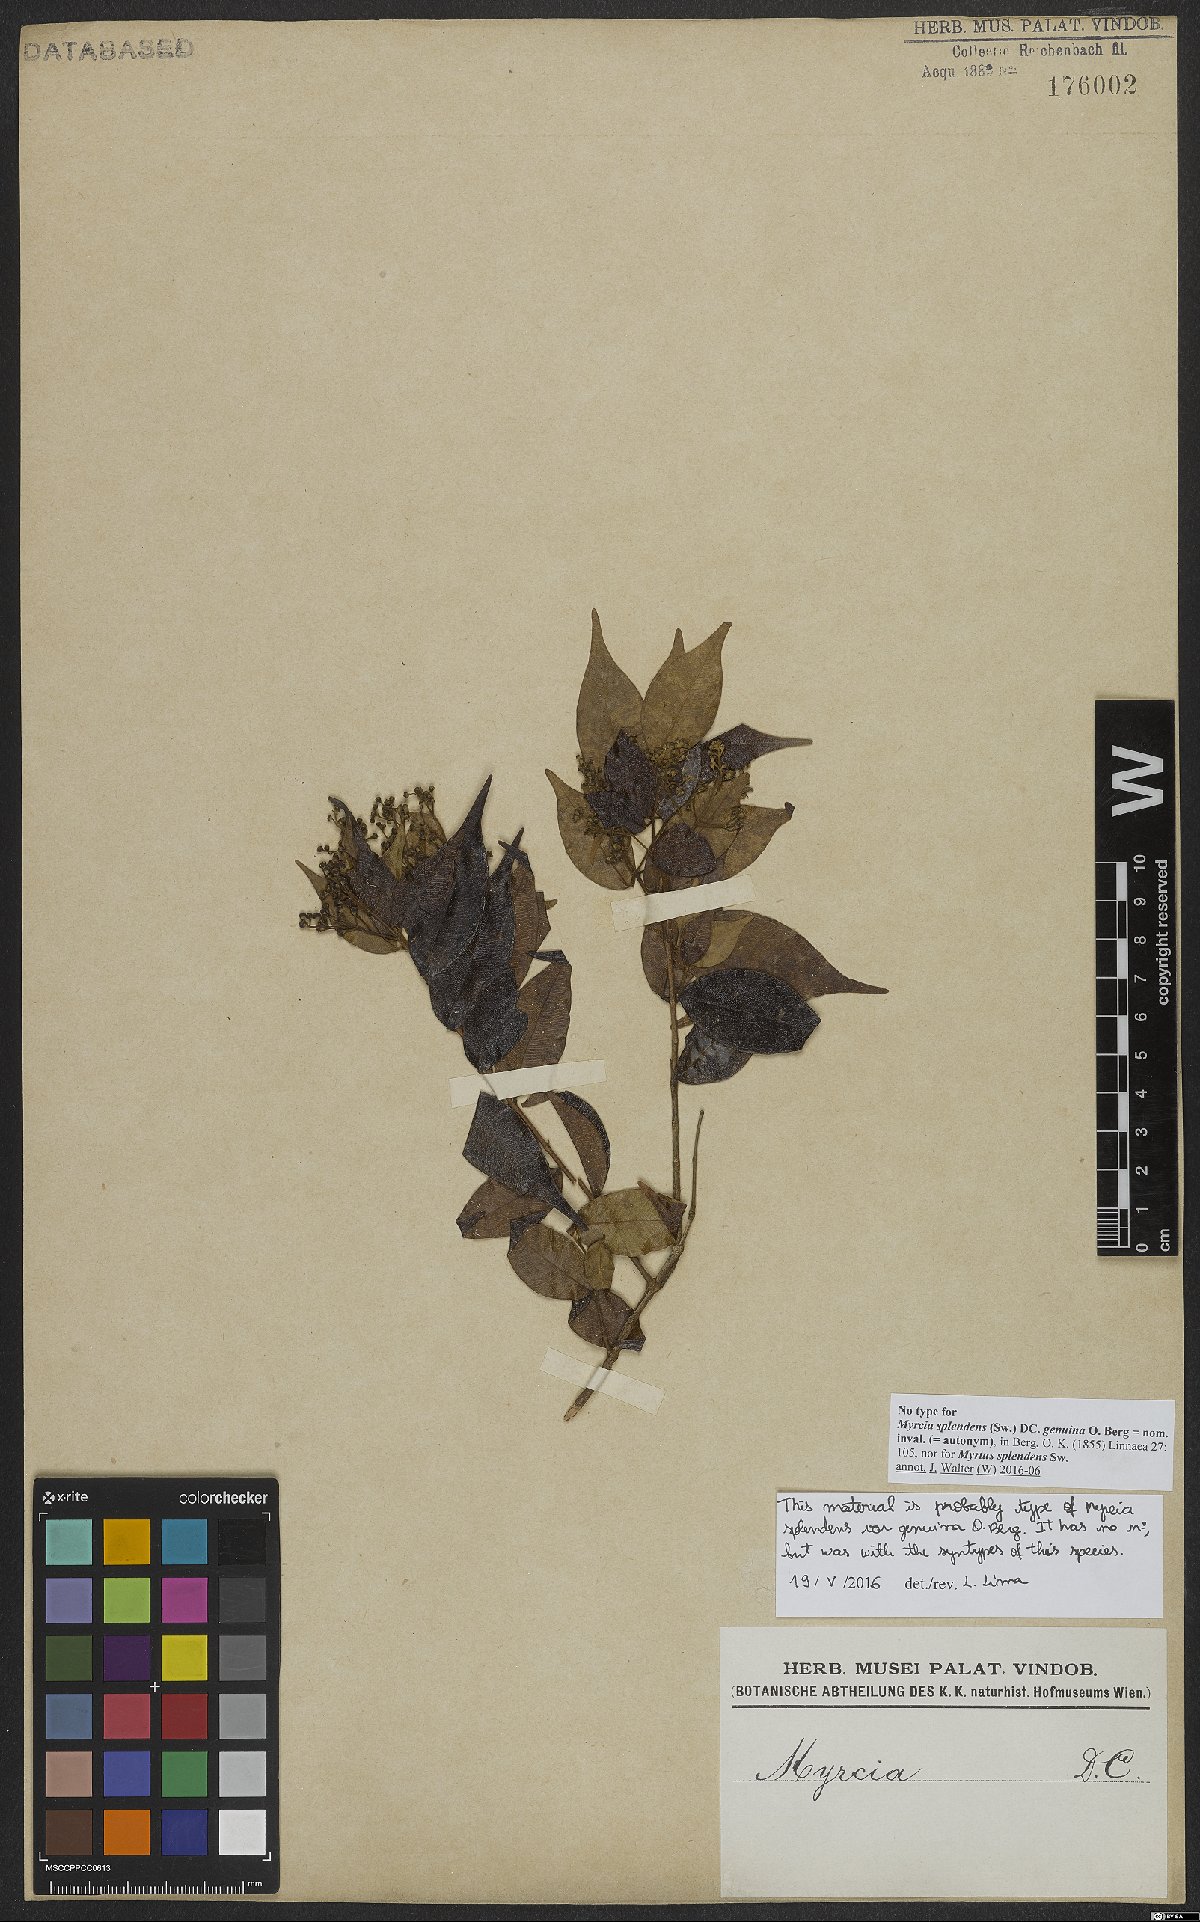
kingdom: Plantae
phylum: Tracheophyta
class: Magnoliopsida
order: Myrtales
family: Myrtaceae
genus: Myrcia
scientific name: Myrcia splendens
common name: Surinam cherry
